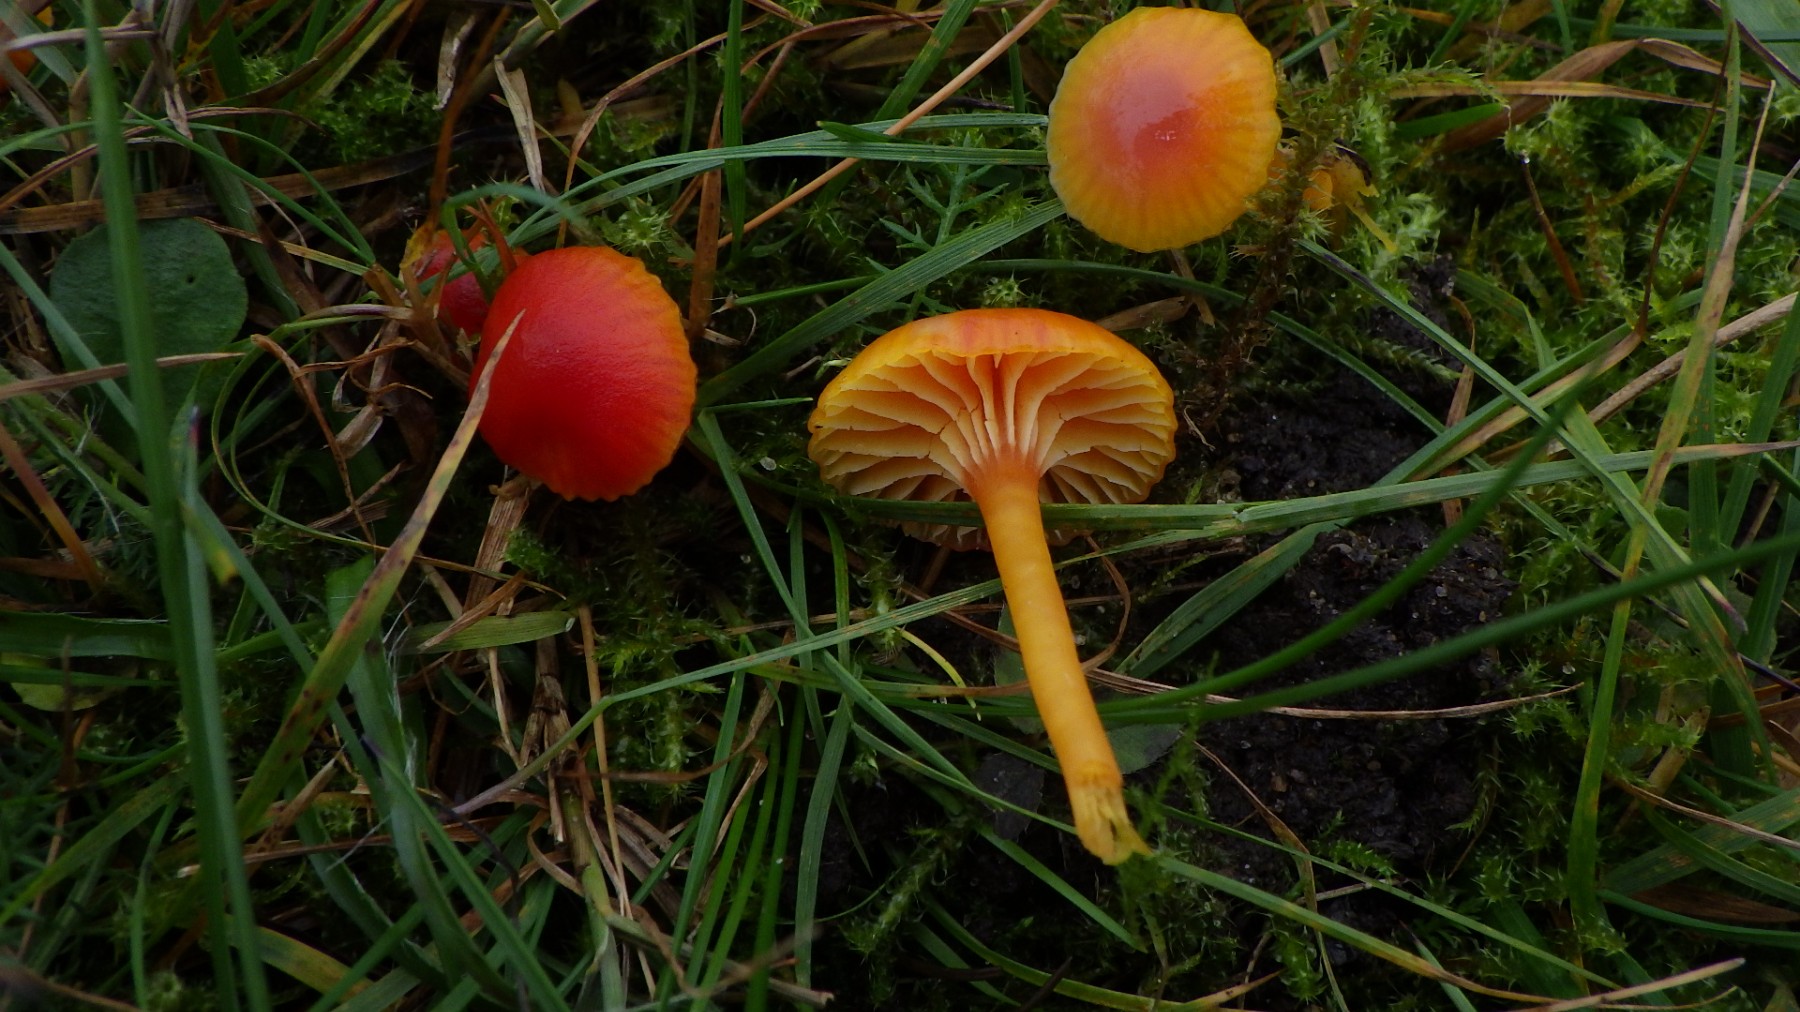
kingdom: Fungi
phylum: Basidiomycota
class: Agaricomycetes
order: Agaricales
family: Hygrophoraceae
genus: Hygrocybe
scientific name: Hygrocybe insipida
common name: liden vokshat
